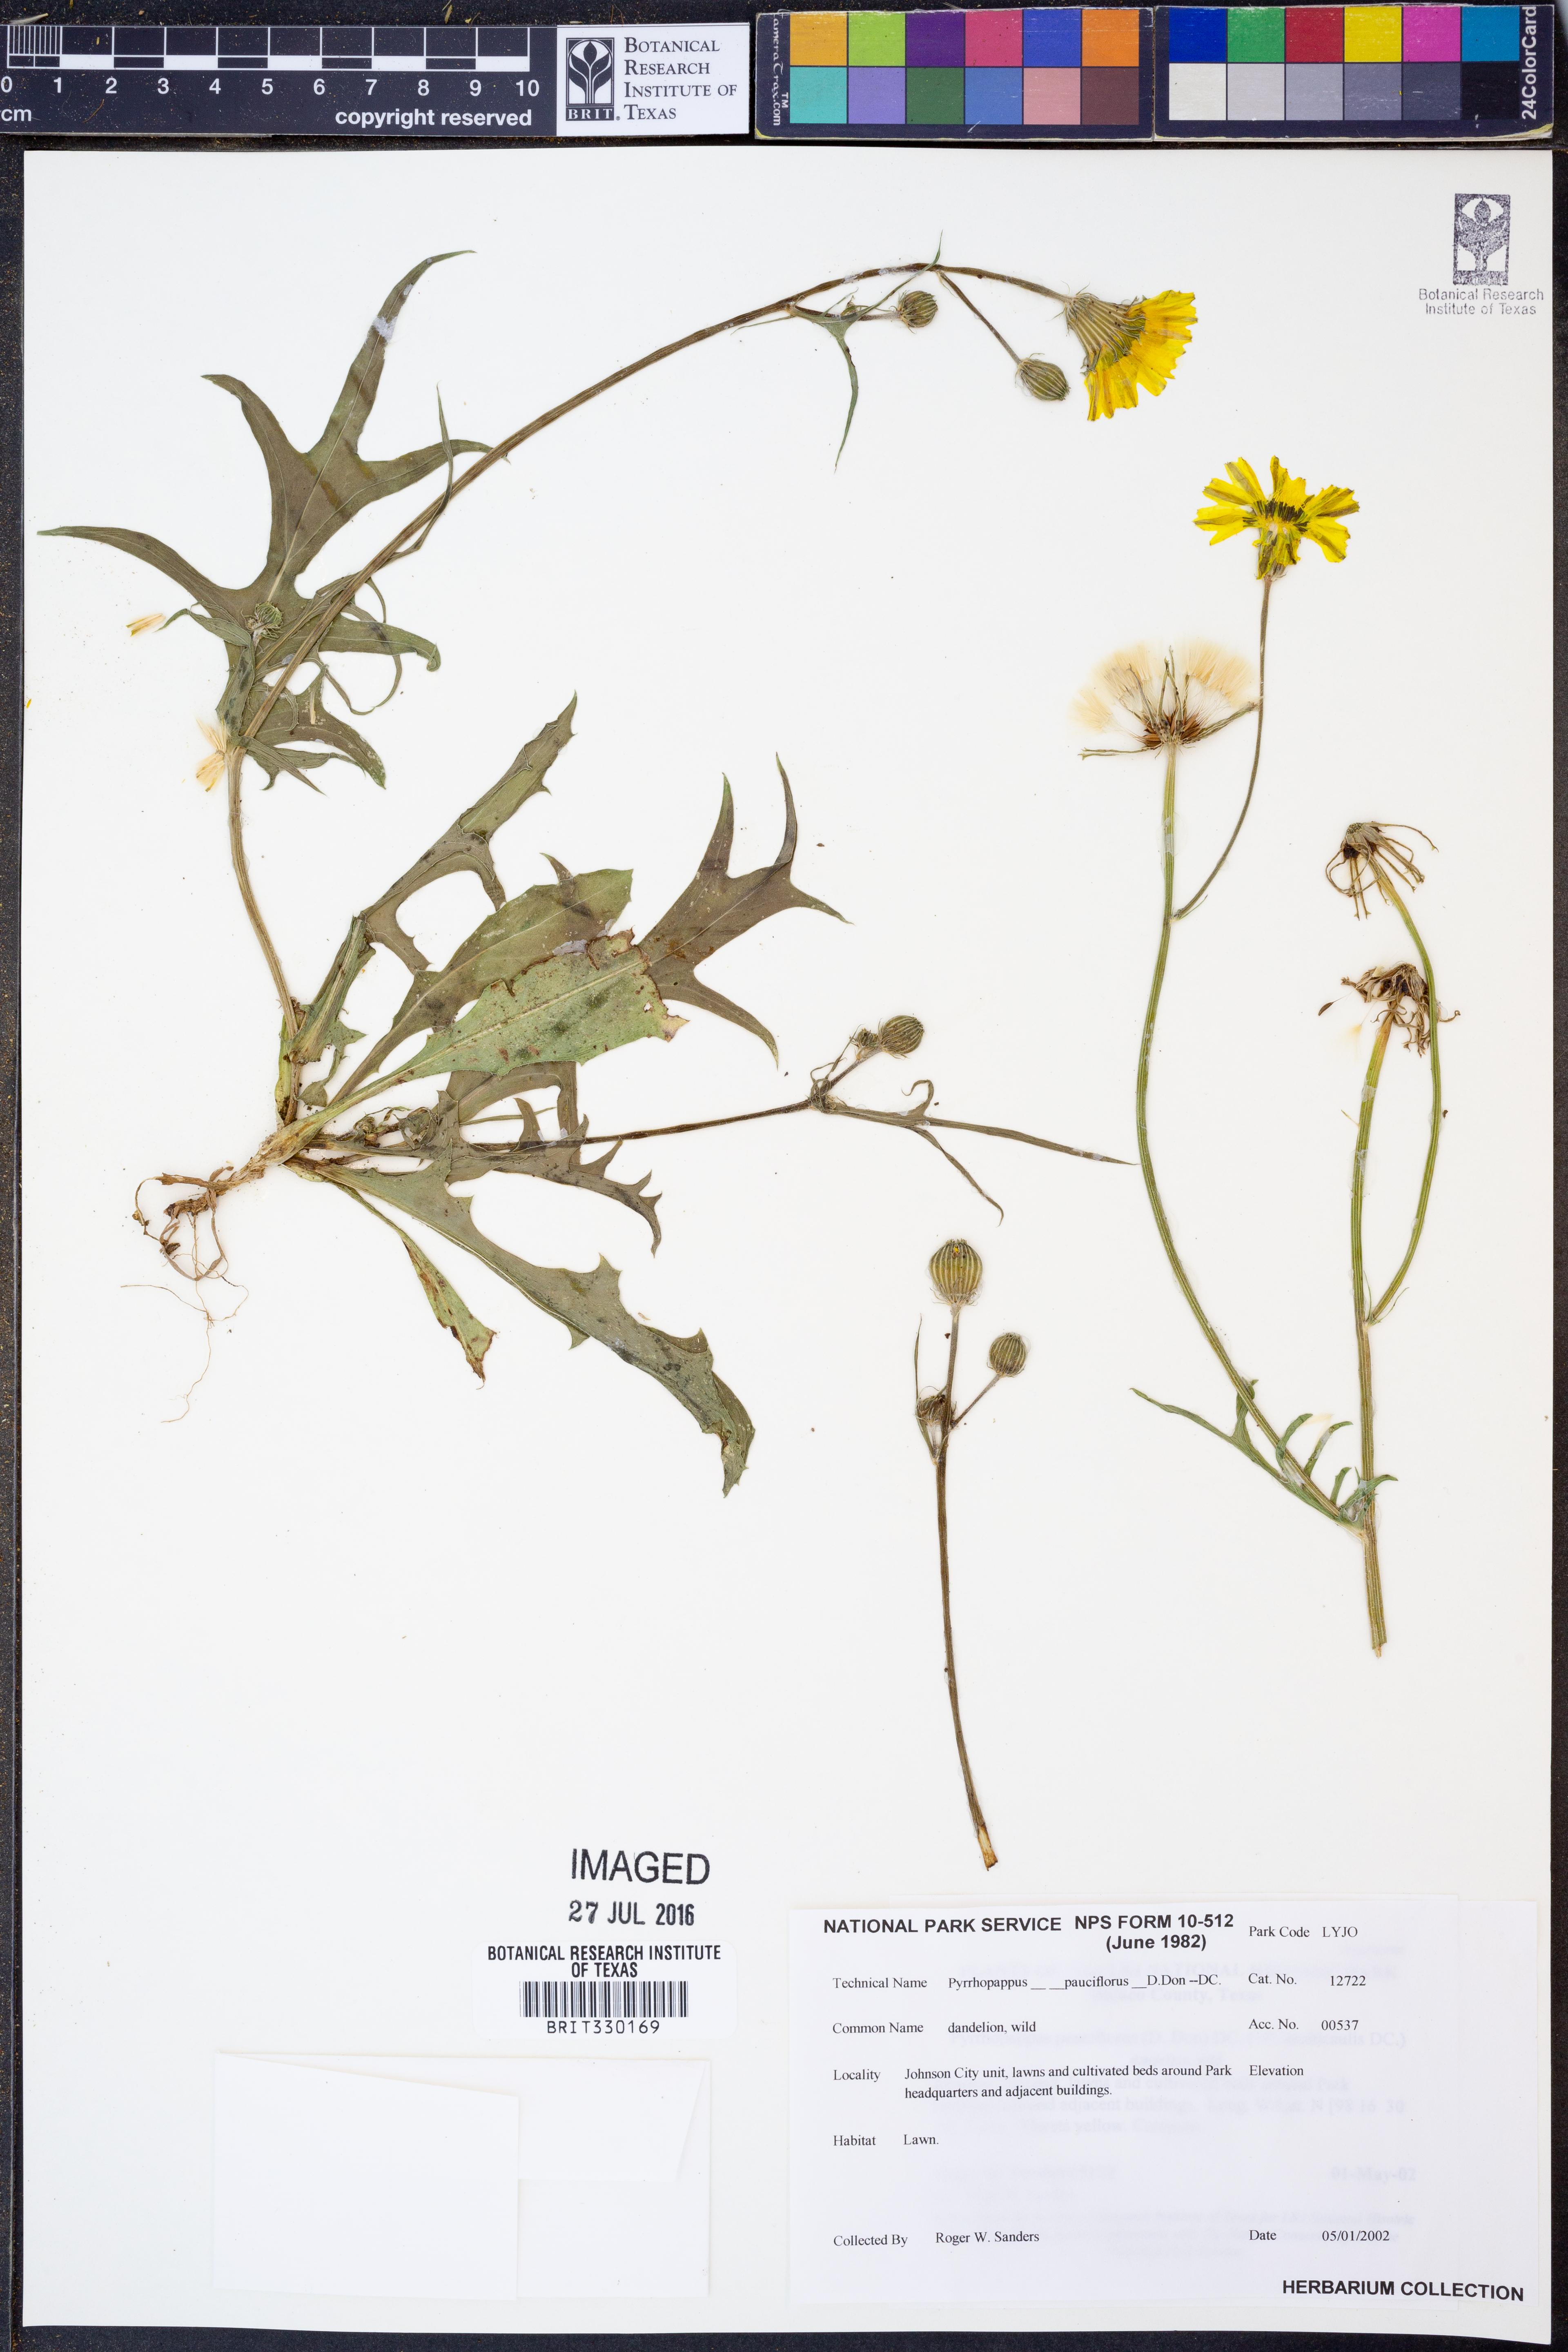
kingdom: Plantae
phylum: Tracheophyta
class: Magnoliopsida
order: Asterales
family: Asteraceae
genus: Pyrrhopappus
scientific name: Pyrrhopappus pauciflorus
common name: Texas false dandelion
